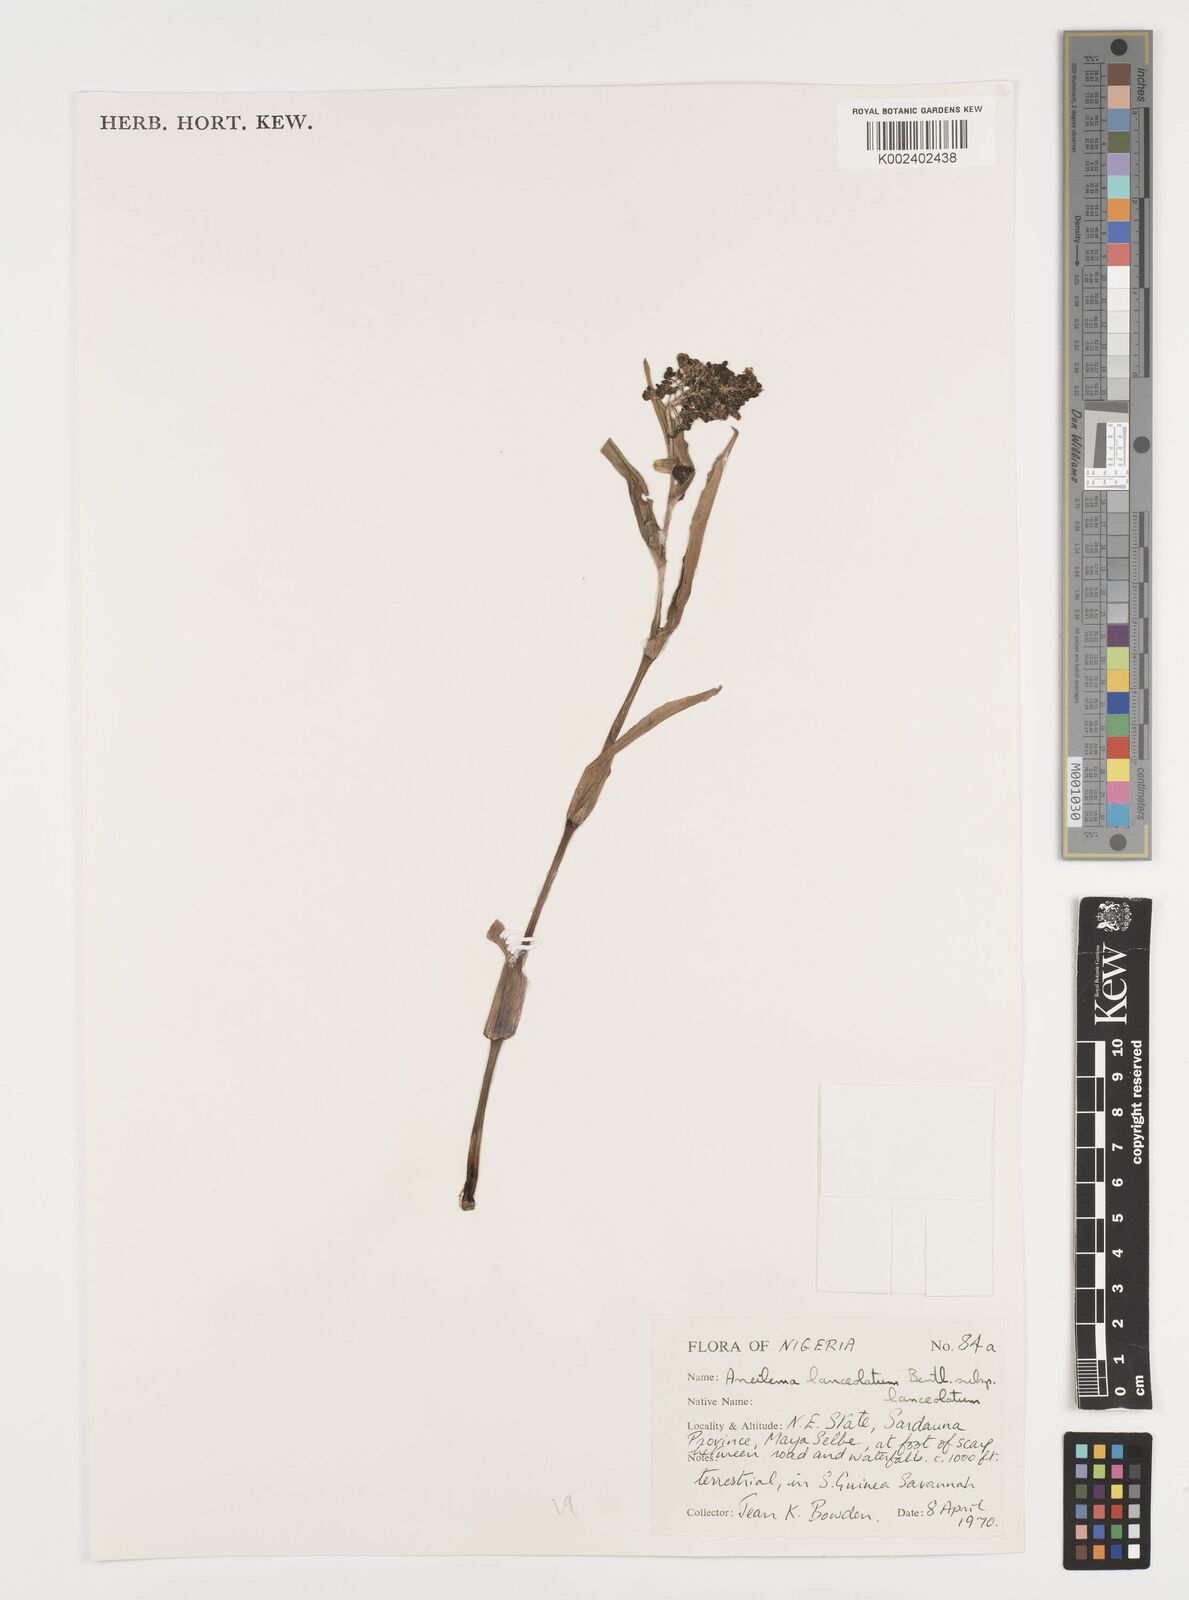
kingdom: Plantae
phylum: Tracheophyta
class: Liliopsida
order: Commelinales
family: Commelinaceae
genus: Aneilema
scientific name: Aneilema lanceolatum
